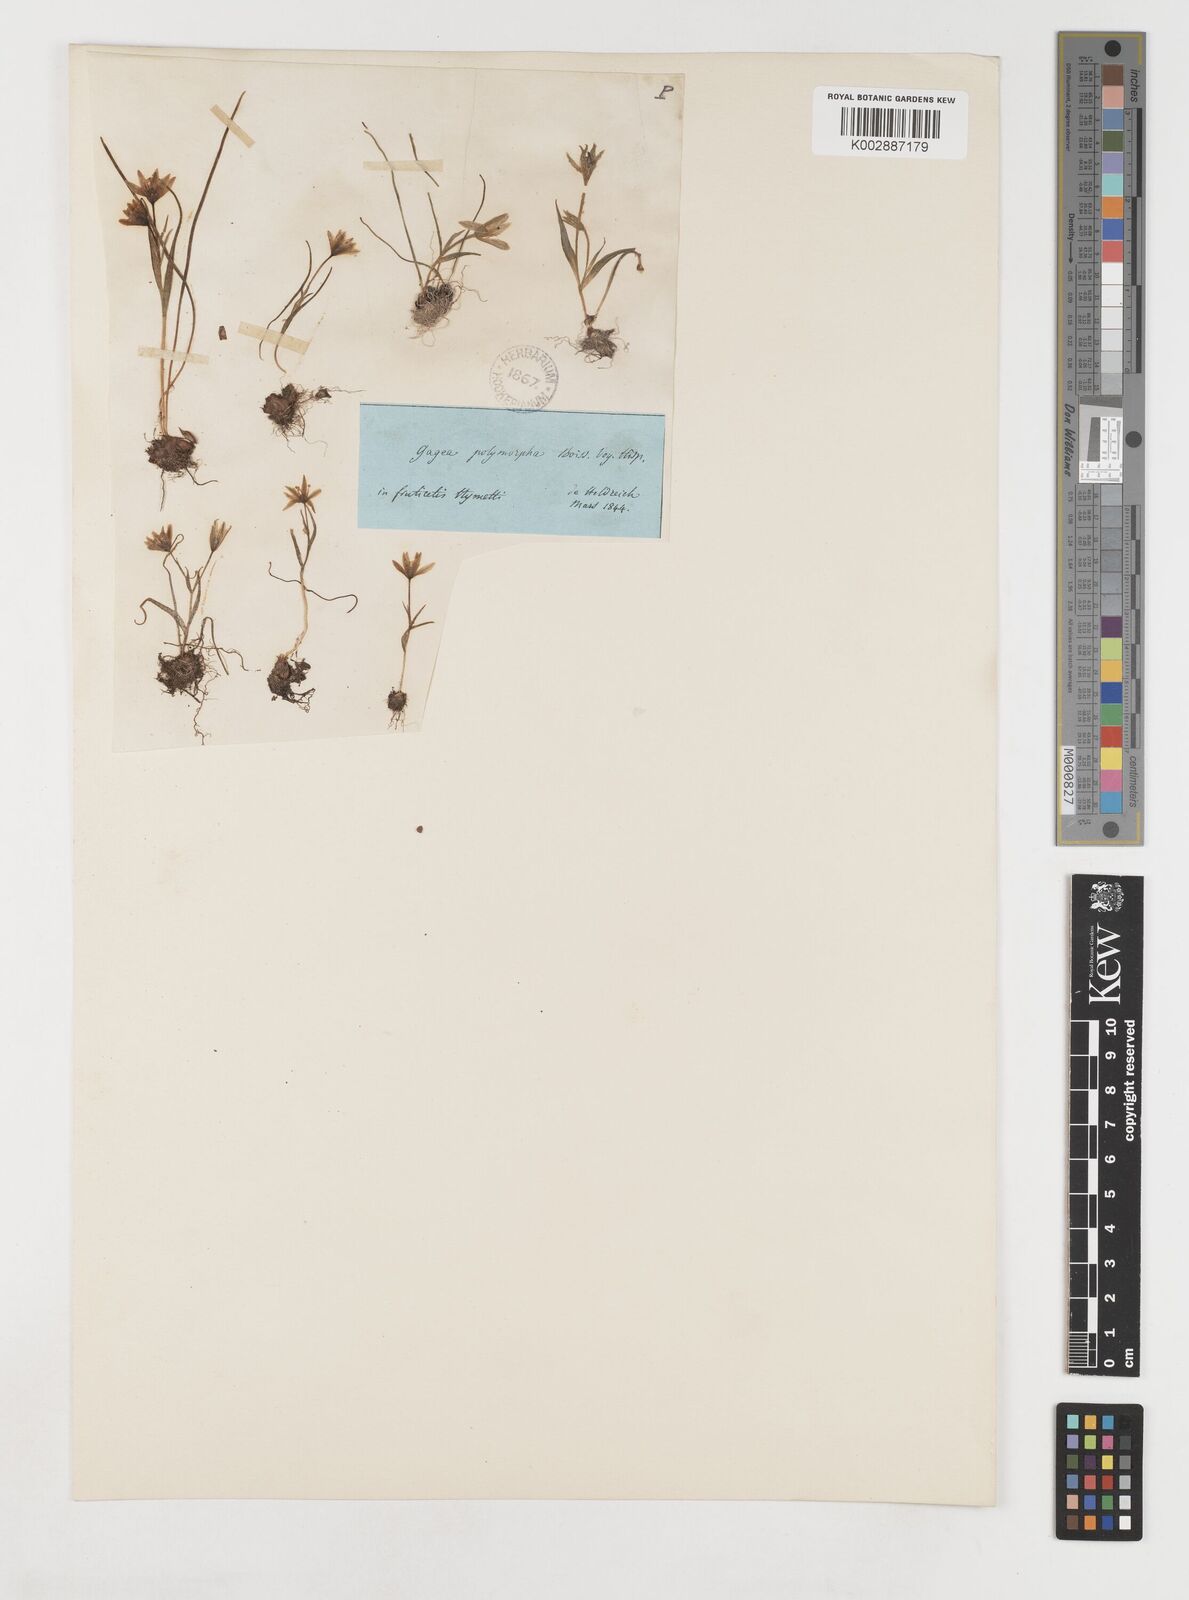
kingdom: Plantae
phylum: Tracheophyta
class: Liliopsida
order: Liliales
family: Liliaceae
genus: Gagea
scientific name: Gagea peduncularis
